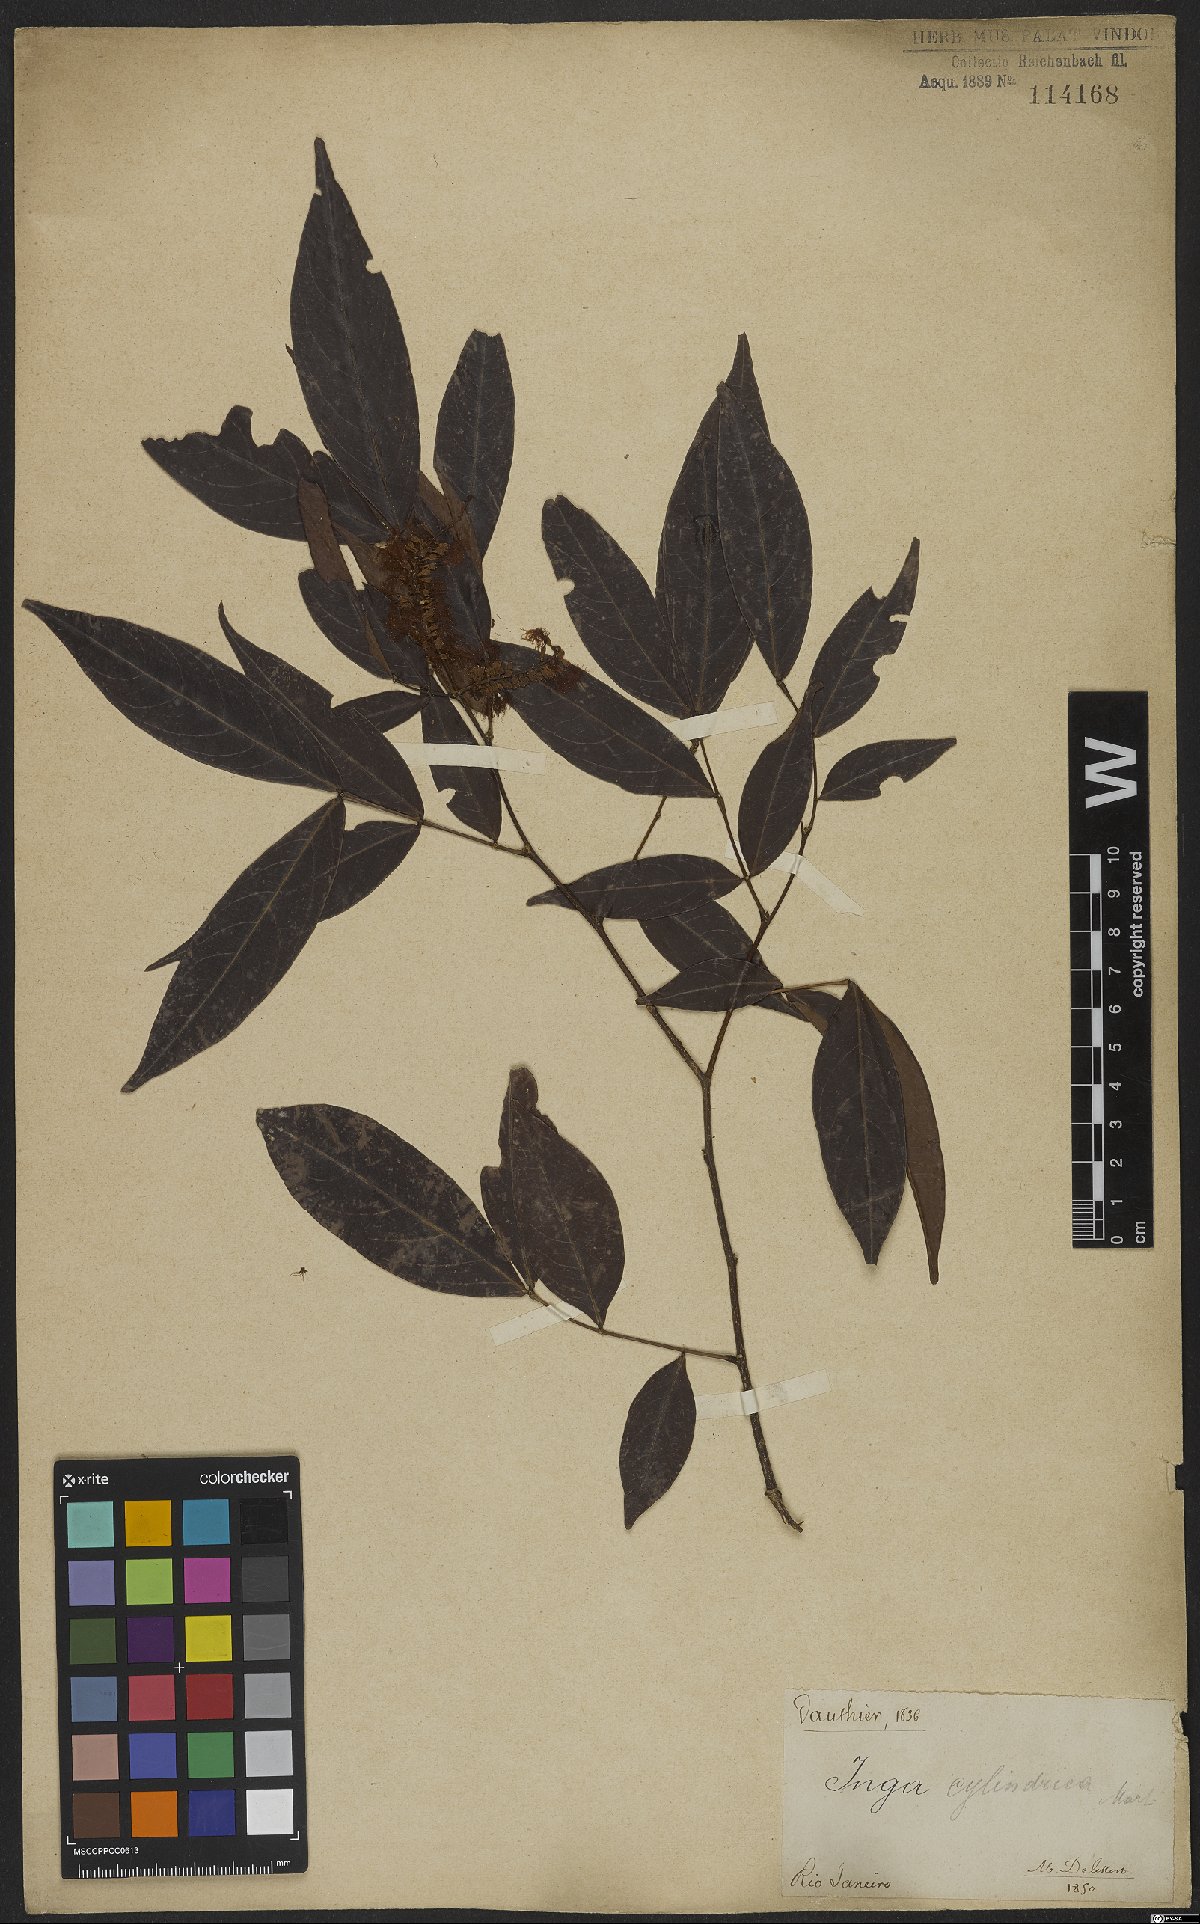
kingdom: Plantae
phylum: Tracheophyta
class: Magnoliopsida
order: Fabales
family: Fabaceae
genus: Inga
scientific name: Inga cylindrica
